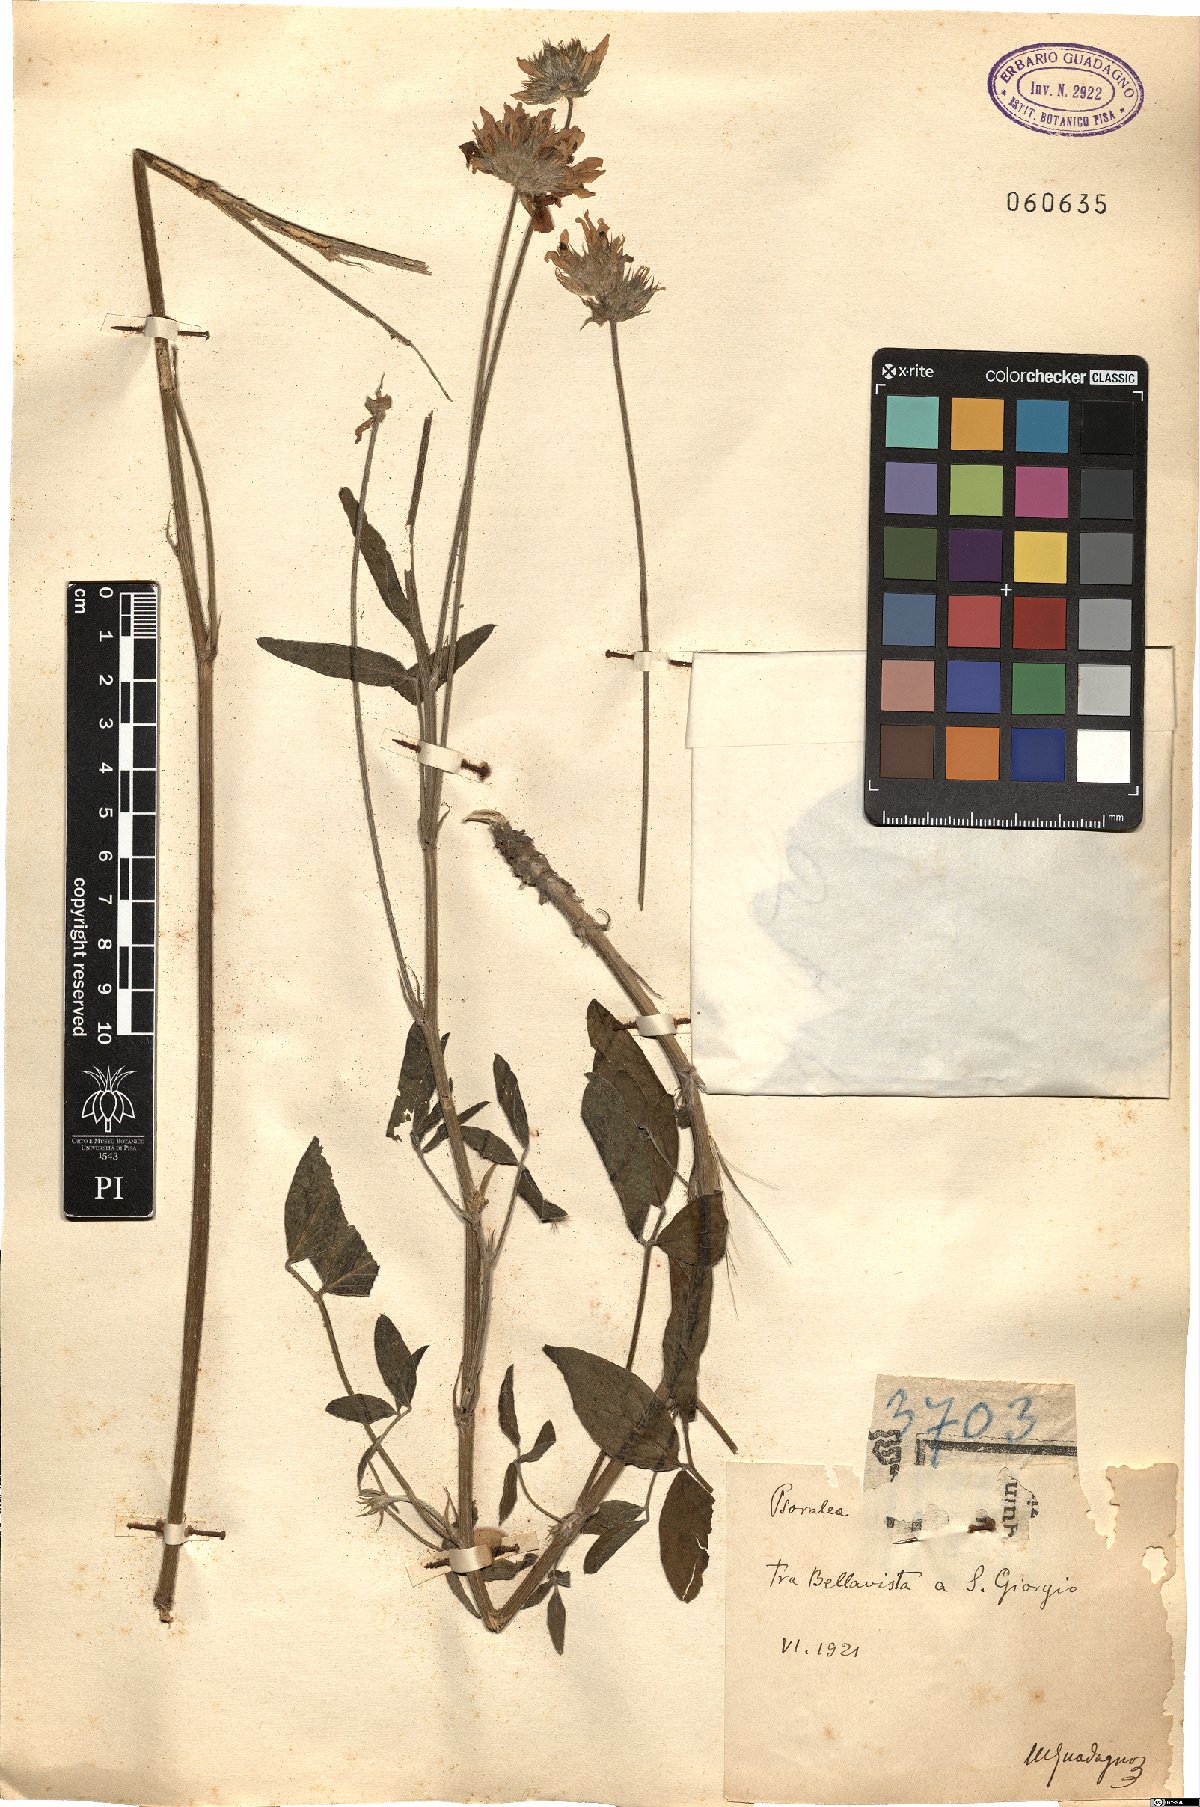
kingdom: Plantae
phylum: Tracheophyta
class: Magnoliopsida
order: Fabales
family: Fabaceae
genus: Psoralea
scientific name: Psoralea
